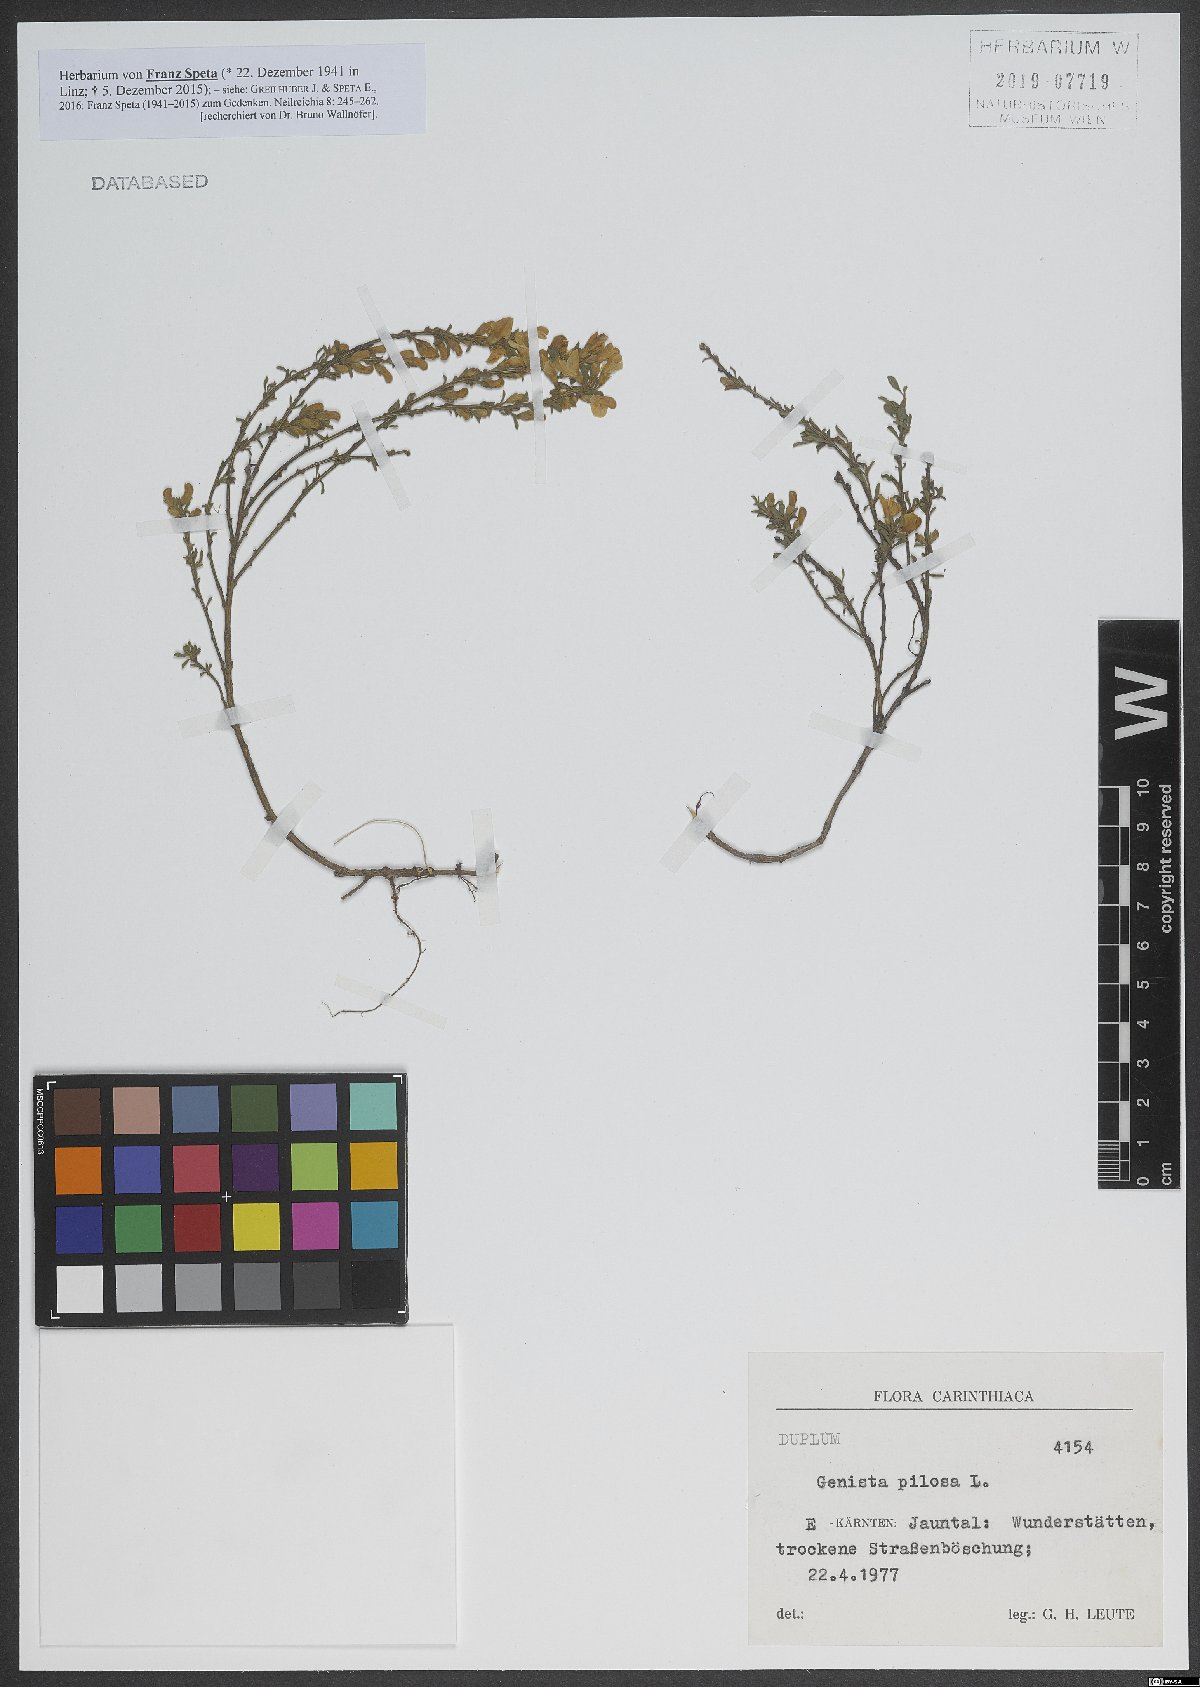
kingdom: Plantae
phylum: Tracheophyta
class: Magnoliopsida
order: Fabales
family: Fabaceae
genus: Genista
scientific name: Genista pilosa
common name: Hairy greenweed
